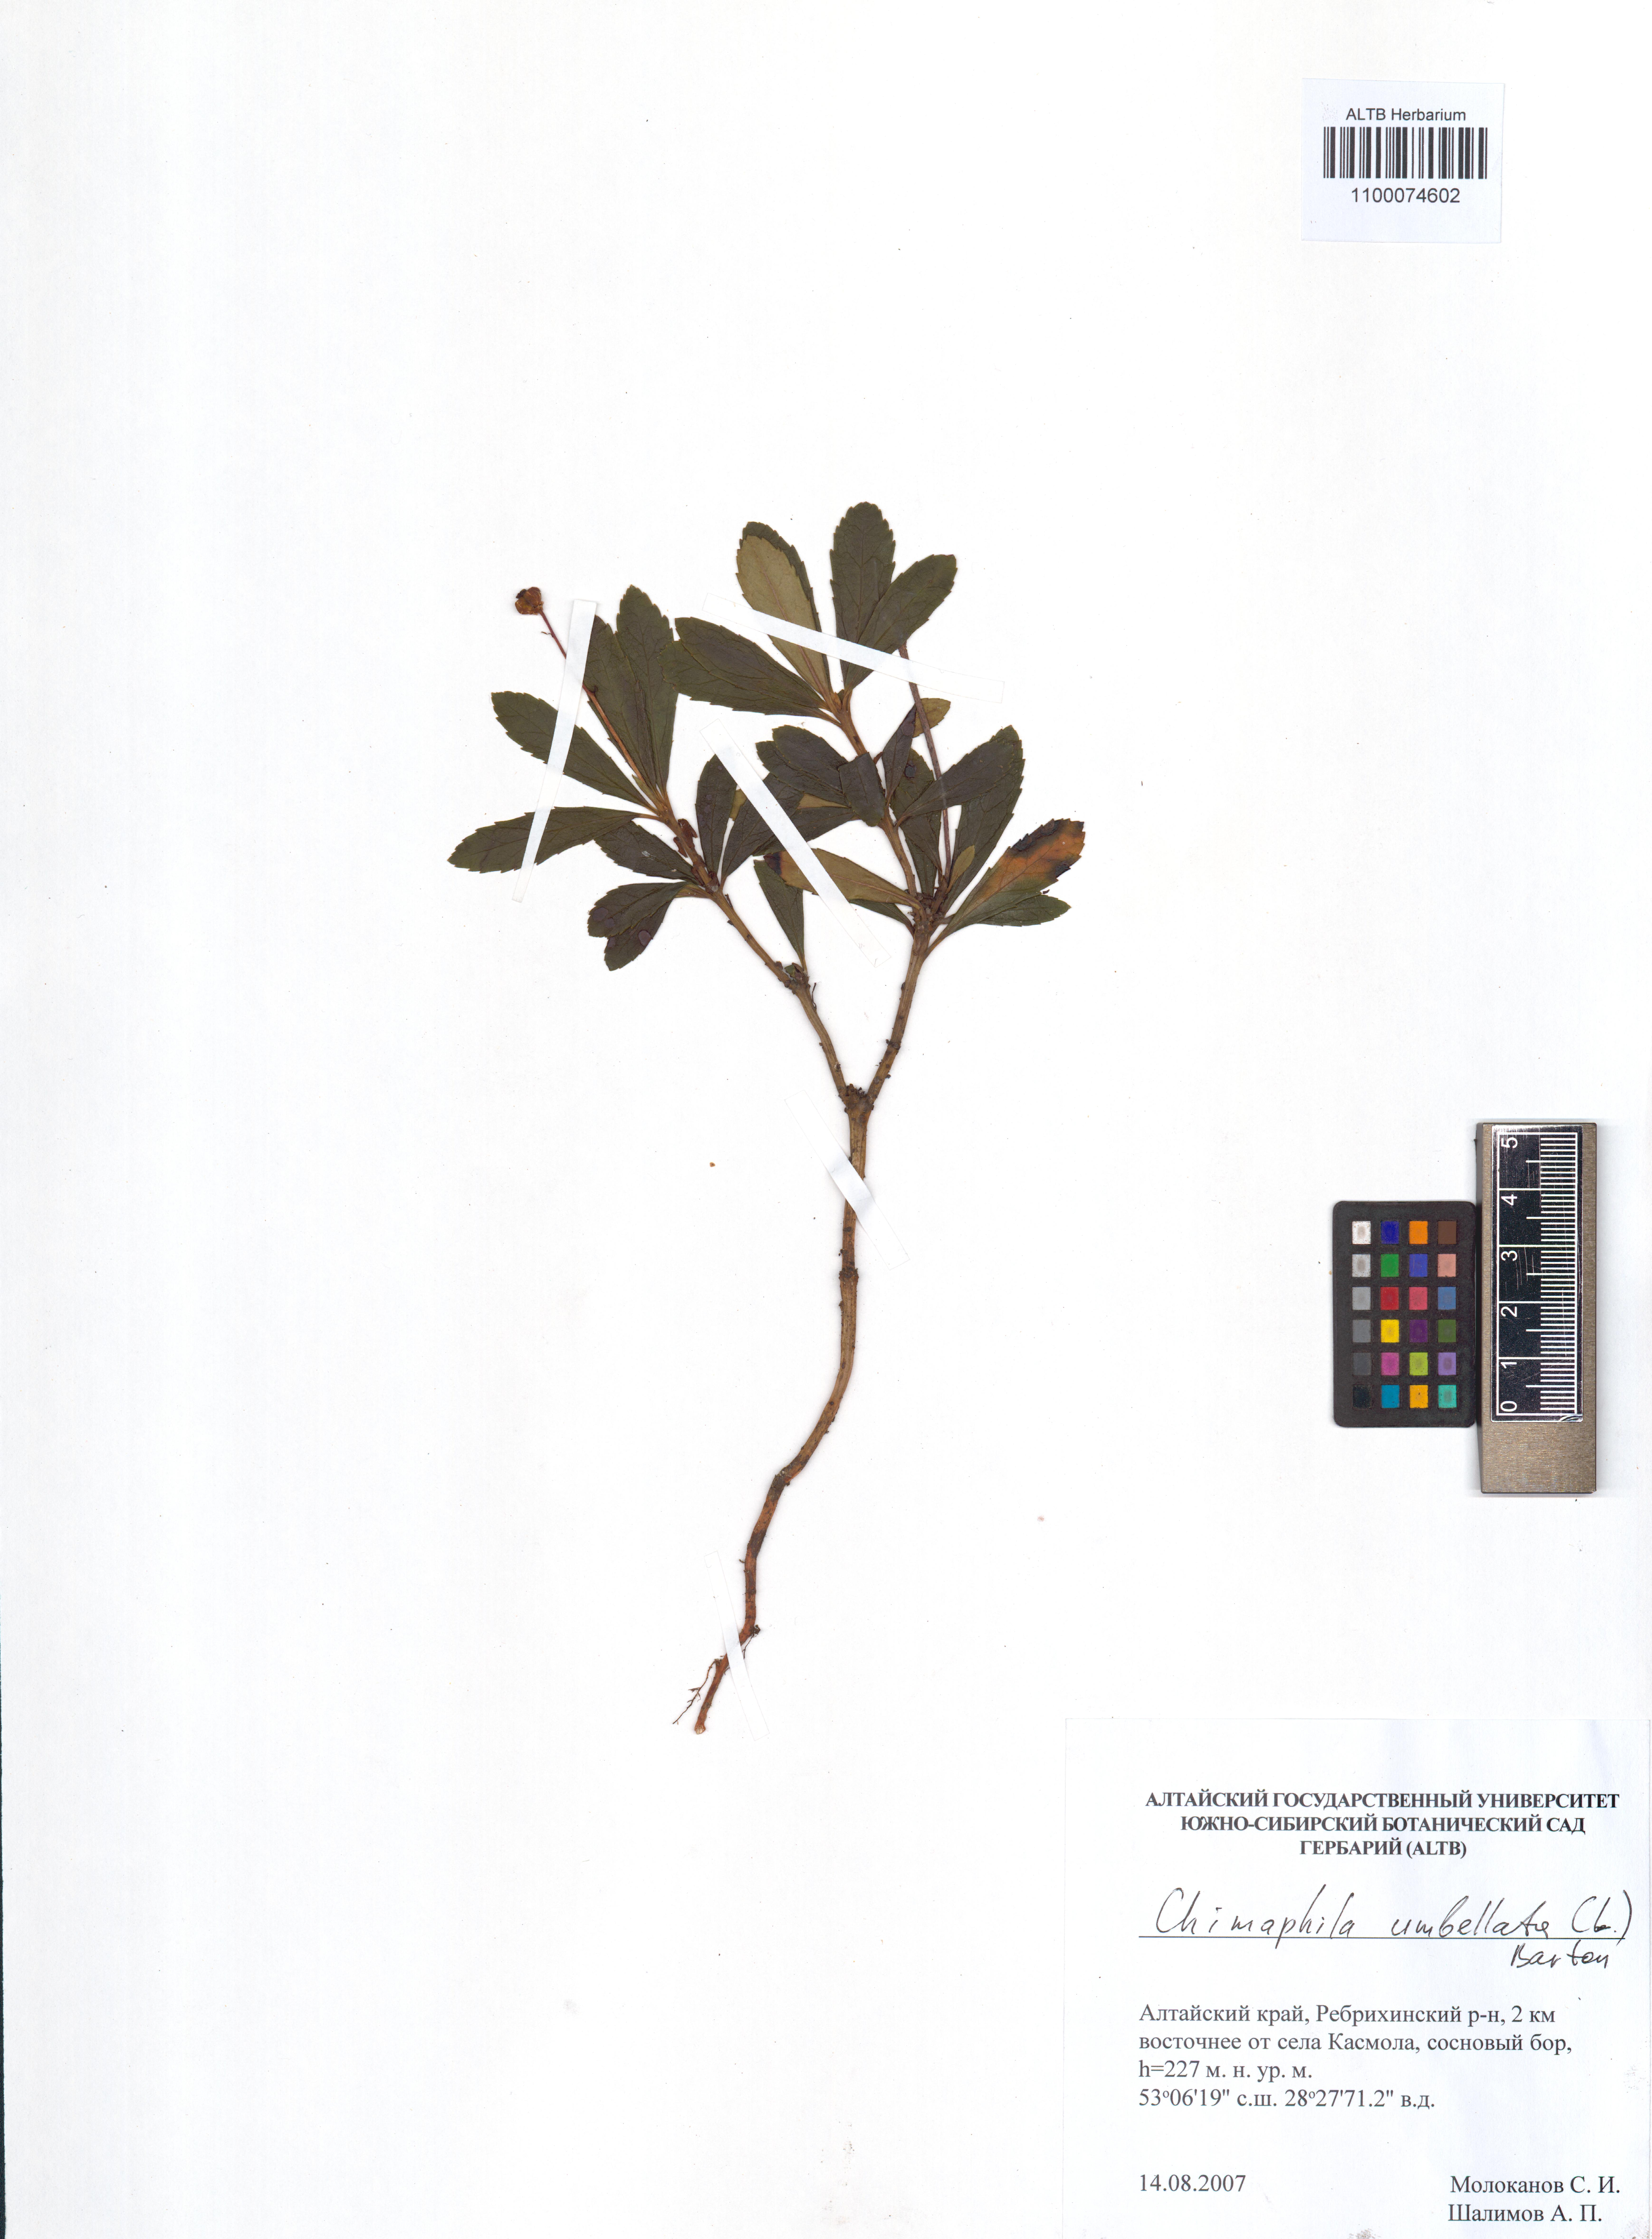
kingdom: Plantae
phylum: Tracheophyta
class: Magnoliopsida
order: Ericales
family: Ericaceae
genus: Chimaphila
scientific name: Chimaphila umbellata
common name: Pipsissewa
